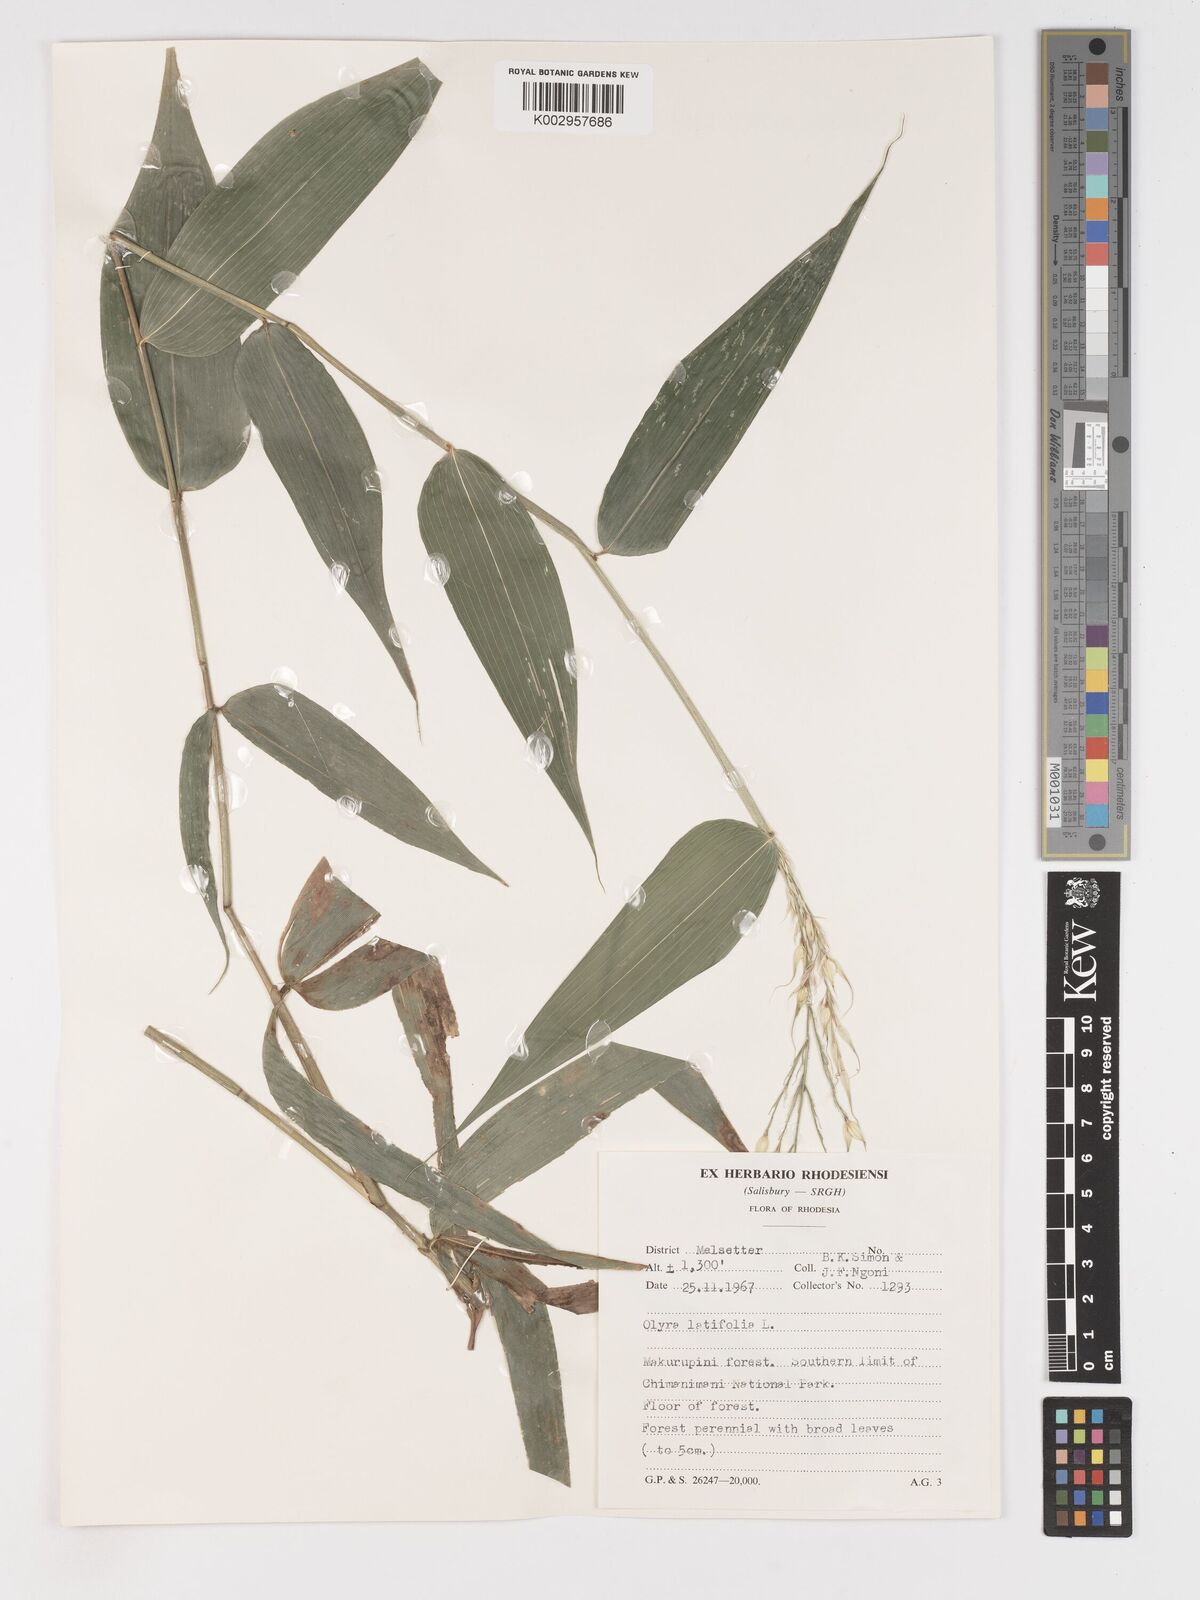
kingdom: Plantae
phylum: Tracheophyta
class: Liliopsida
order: Poales
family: Poaceae
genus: Olyra
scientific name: Olyra latifolia
